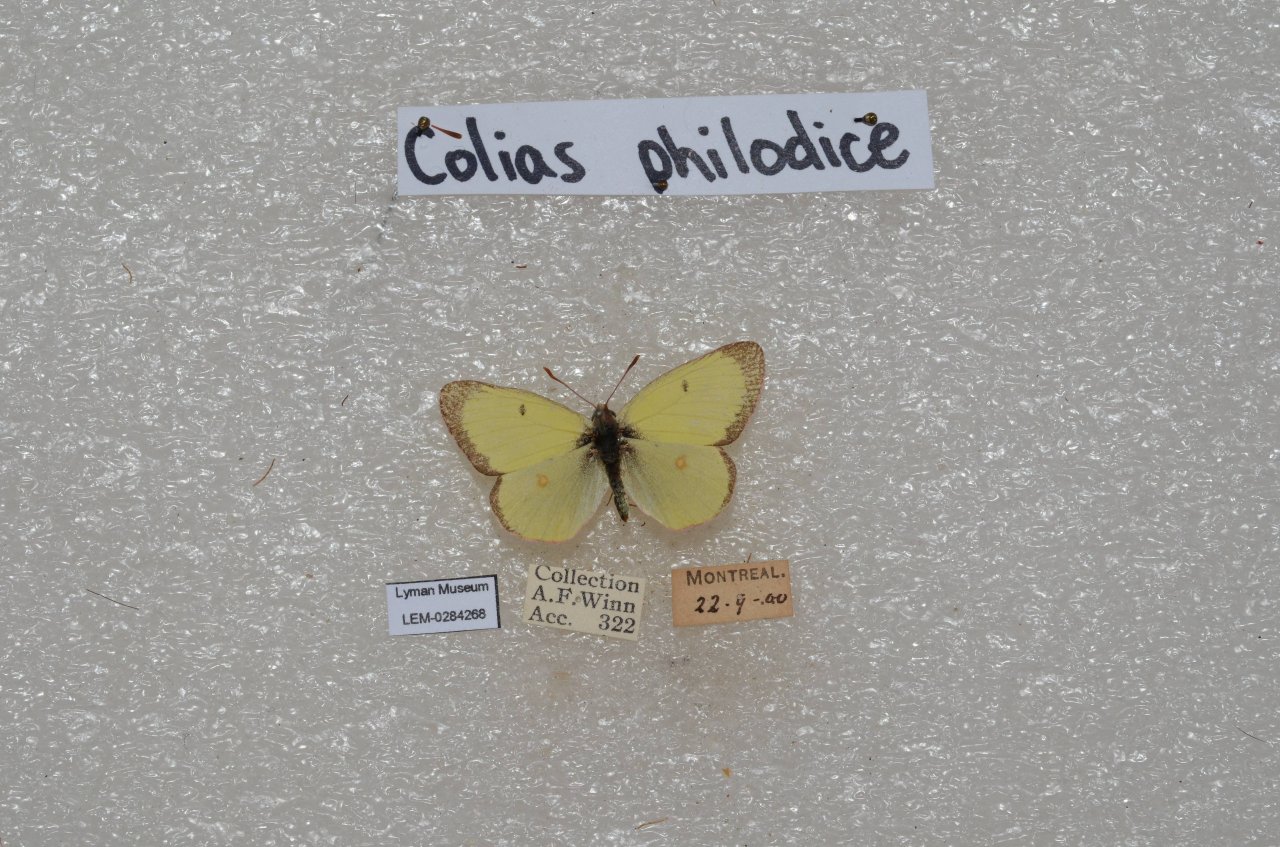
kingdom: Animalia
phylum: Arthropoda
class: Insecta
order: Lepidoptera
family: Pieridae
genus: Colias
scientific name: Colias philodice
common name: Clouded Sulphur
